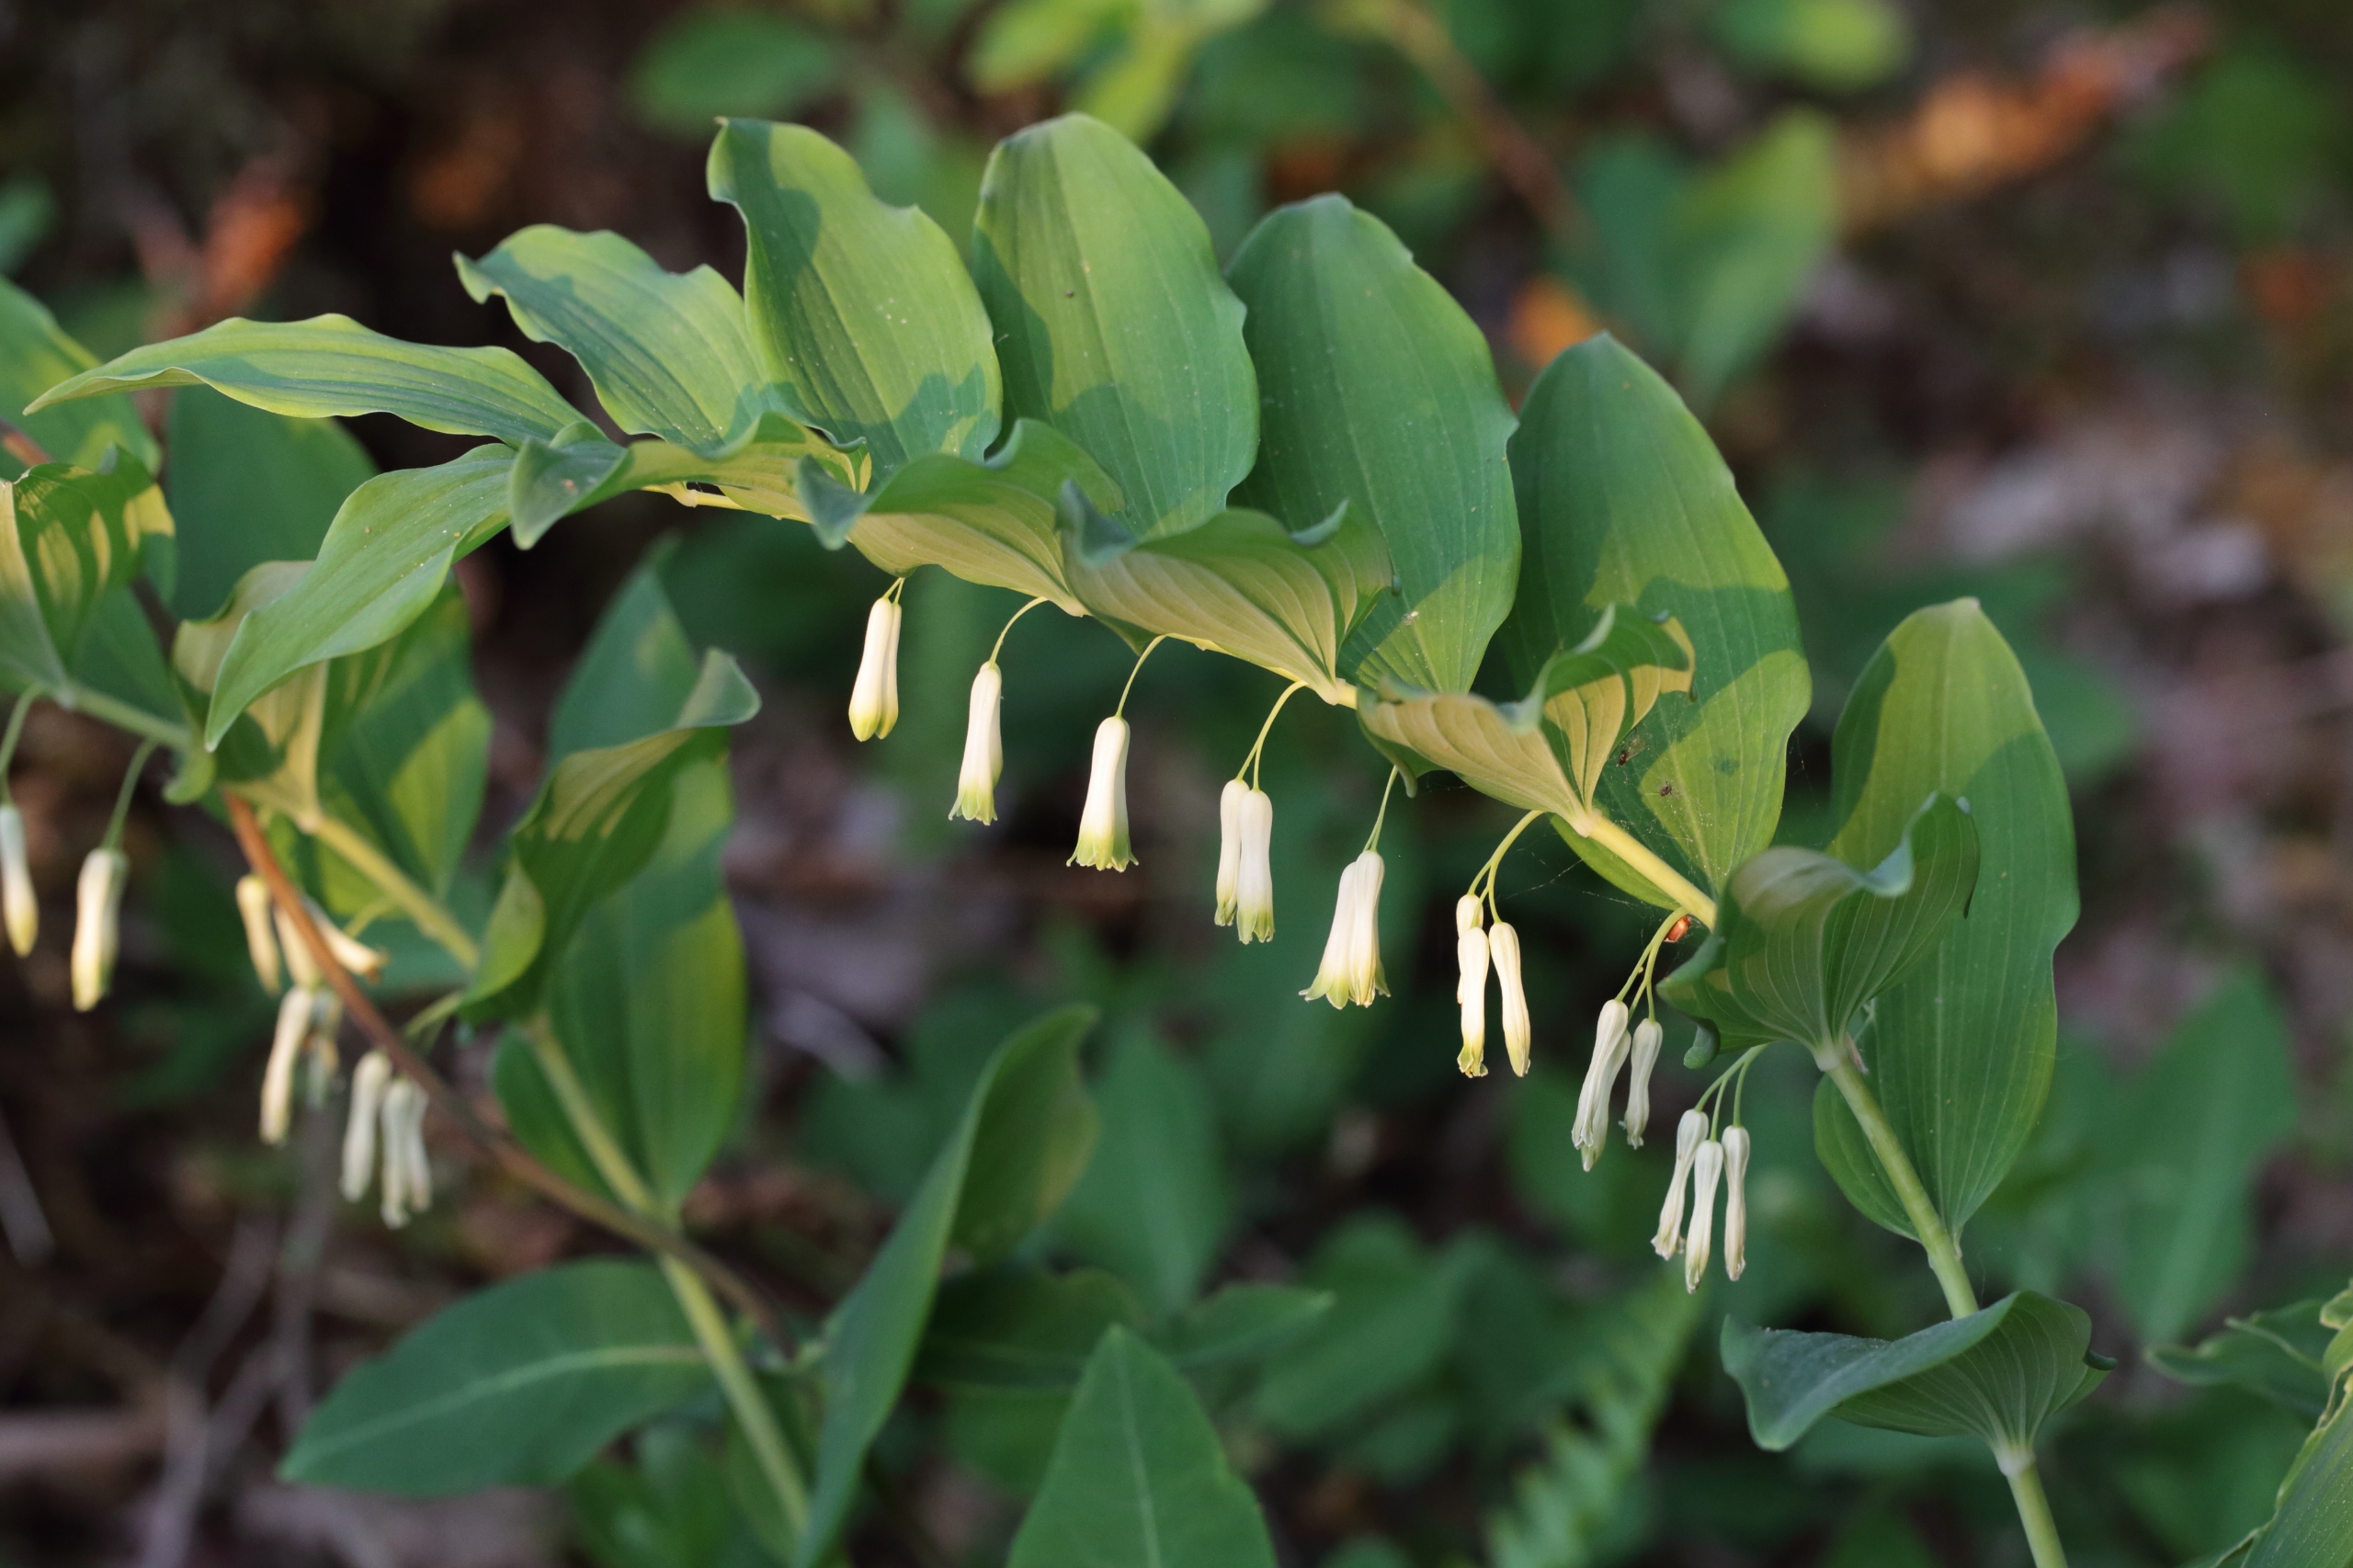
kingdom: Plantae
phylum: Tracheophyta
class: Liliopsida
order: Asparagales
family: Asparagaceae
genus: Polygonatum
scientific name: Polygonatum multiflorum
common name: Stor konval
